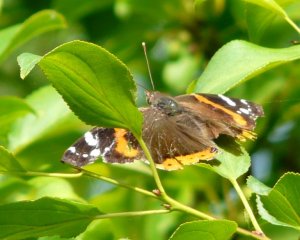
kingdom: Animalia
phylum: Arthropoda
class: Insecta
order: Lepidoptera
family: Nymphalidae
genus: Vanessa
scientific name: Vanessa atalanta
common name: Red Admiral
